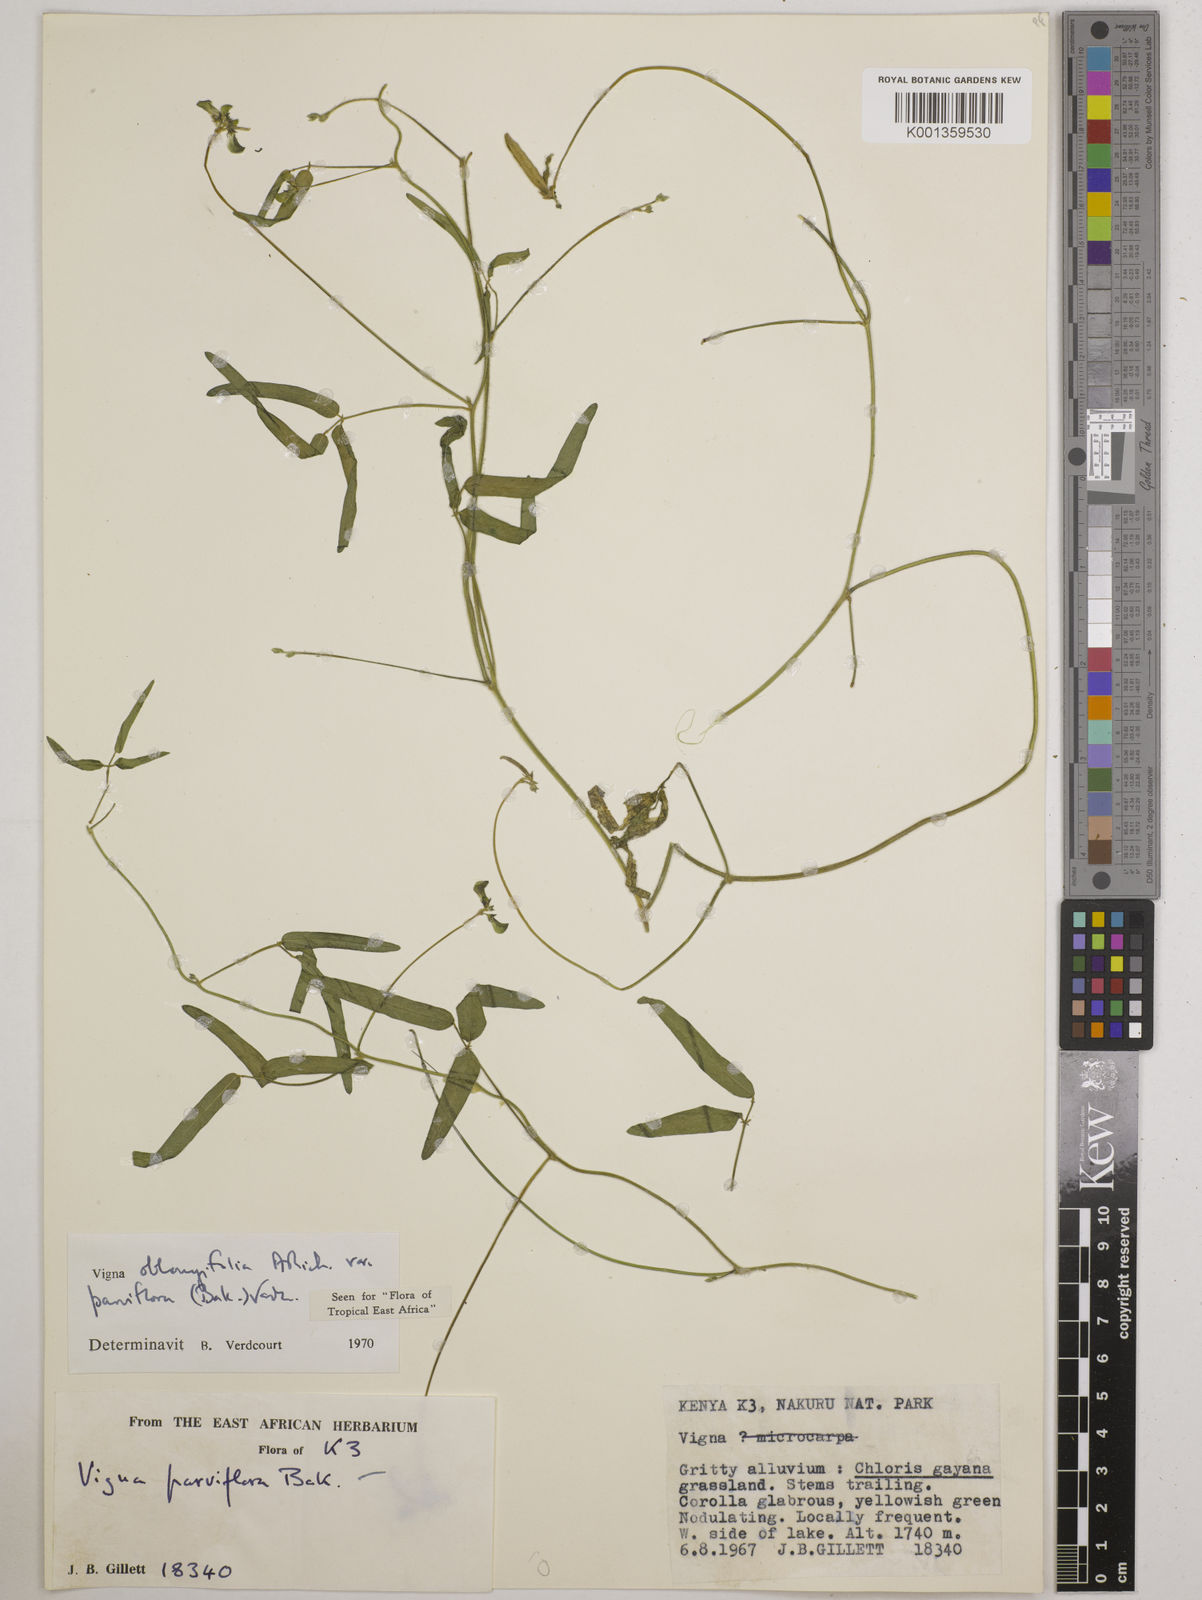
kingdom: Plantae
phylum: Tracheophyta
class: Magnoliopsida
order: Fabales
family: Fabaceae
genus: Vigna
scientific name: Vigna
